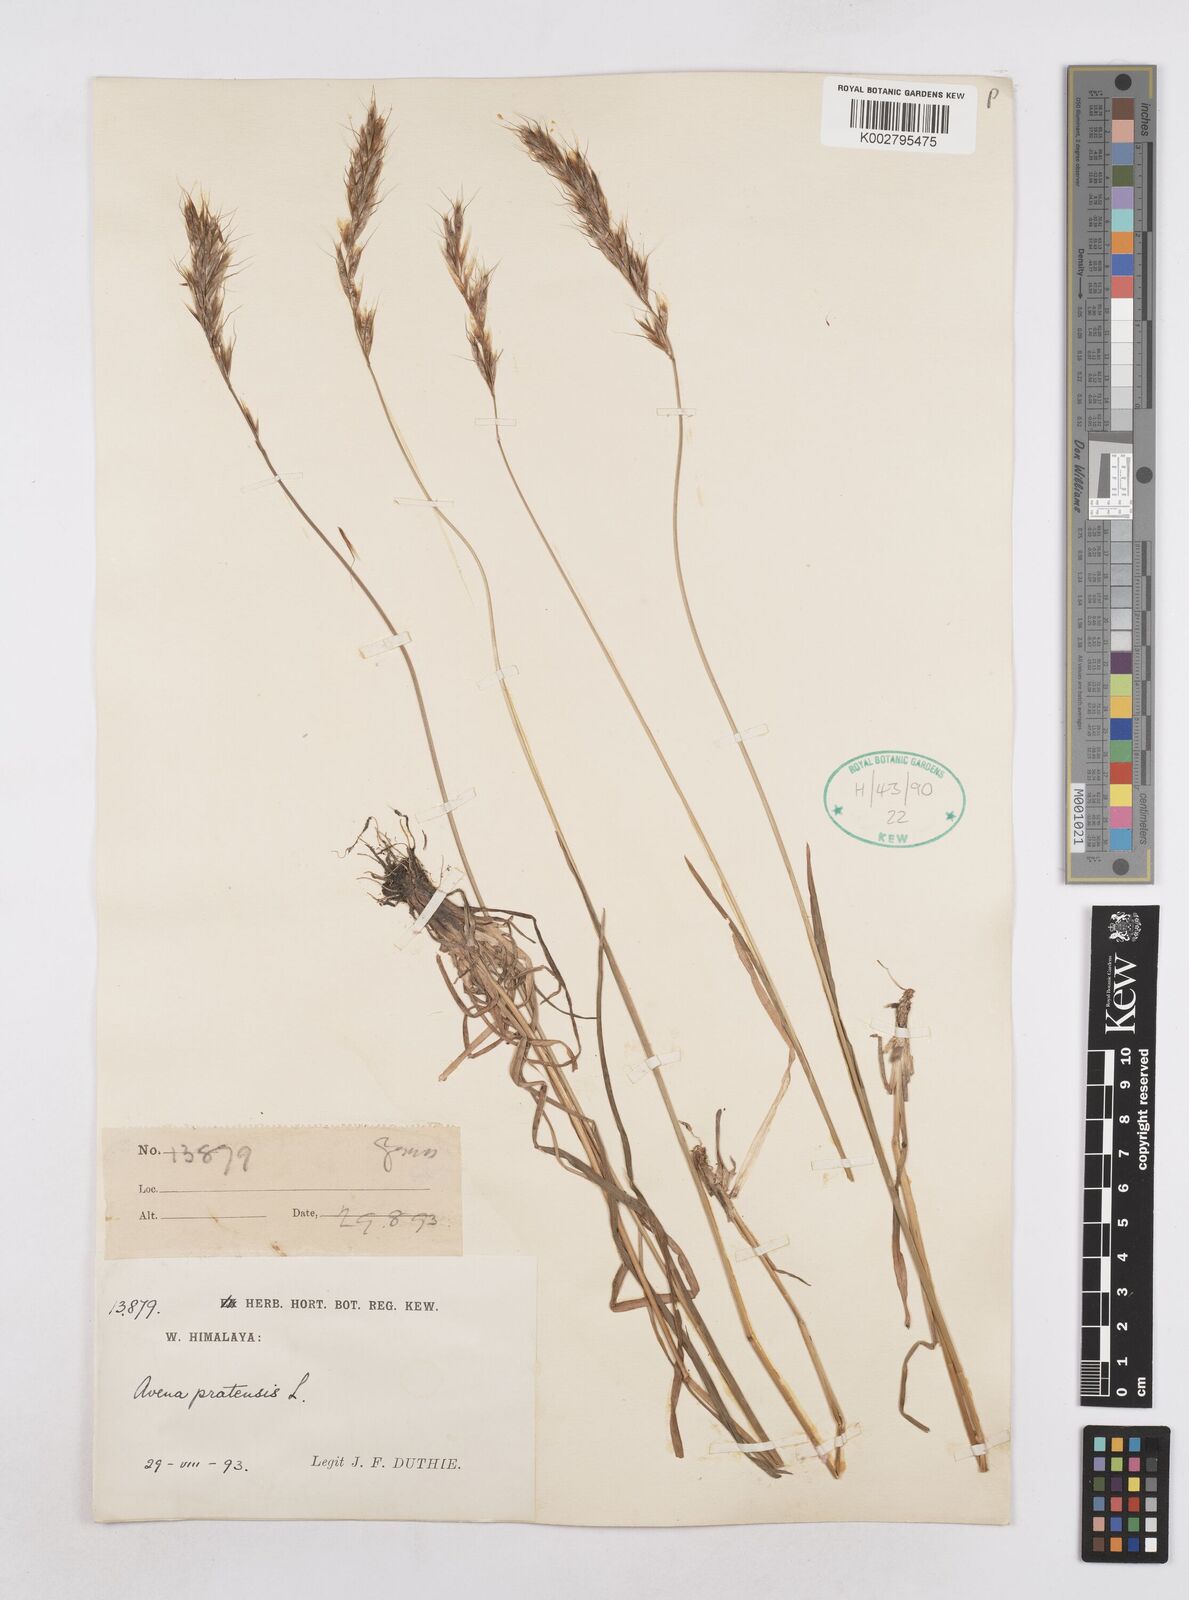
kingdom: Plantae
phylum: Tracheophyta
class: Liliopsida
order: Poales
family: Poaceae
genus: Helictochloa
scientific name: Helictochloa pratensis
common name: Meadow oat grass
